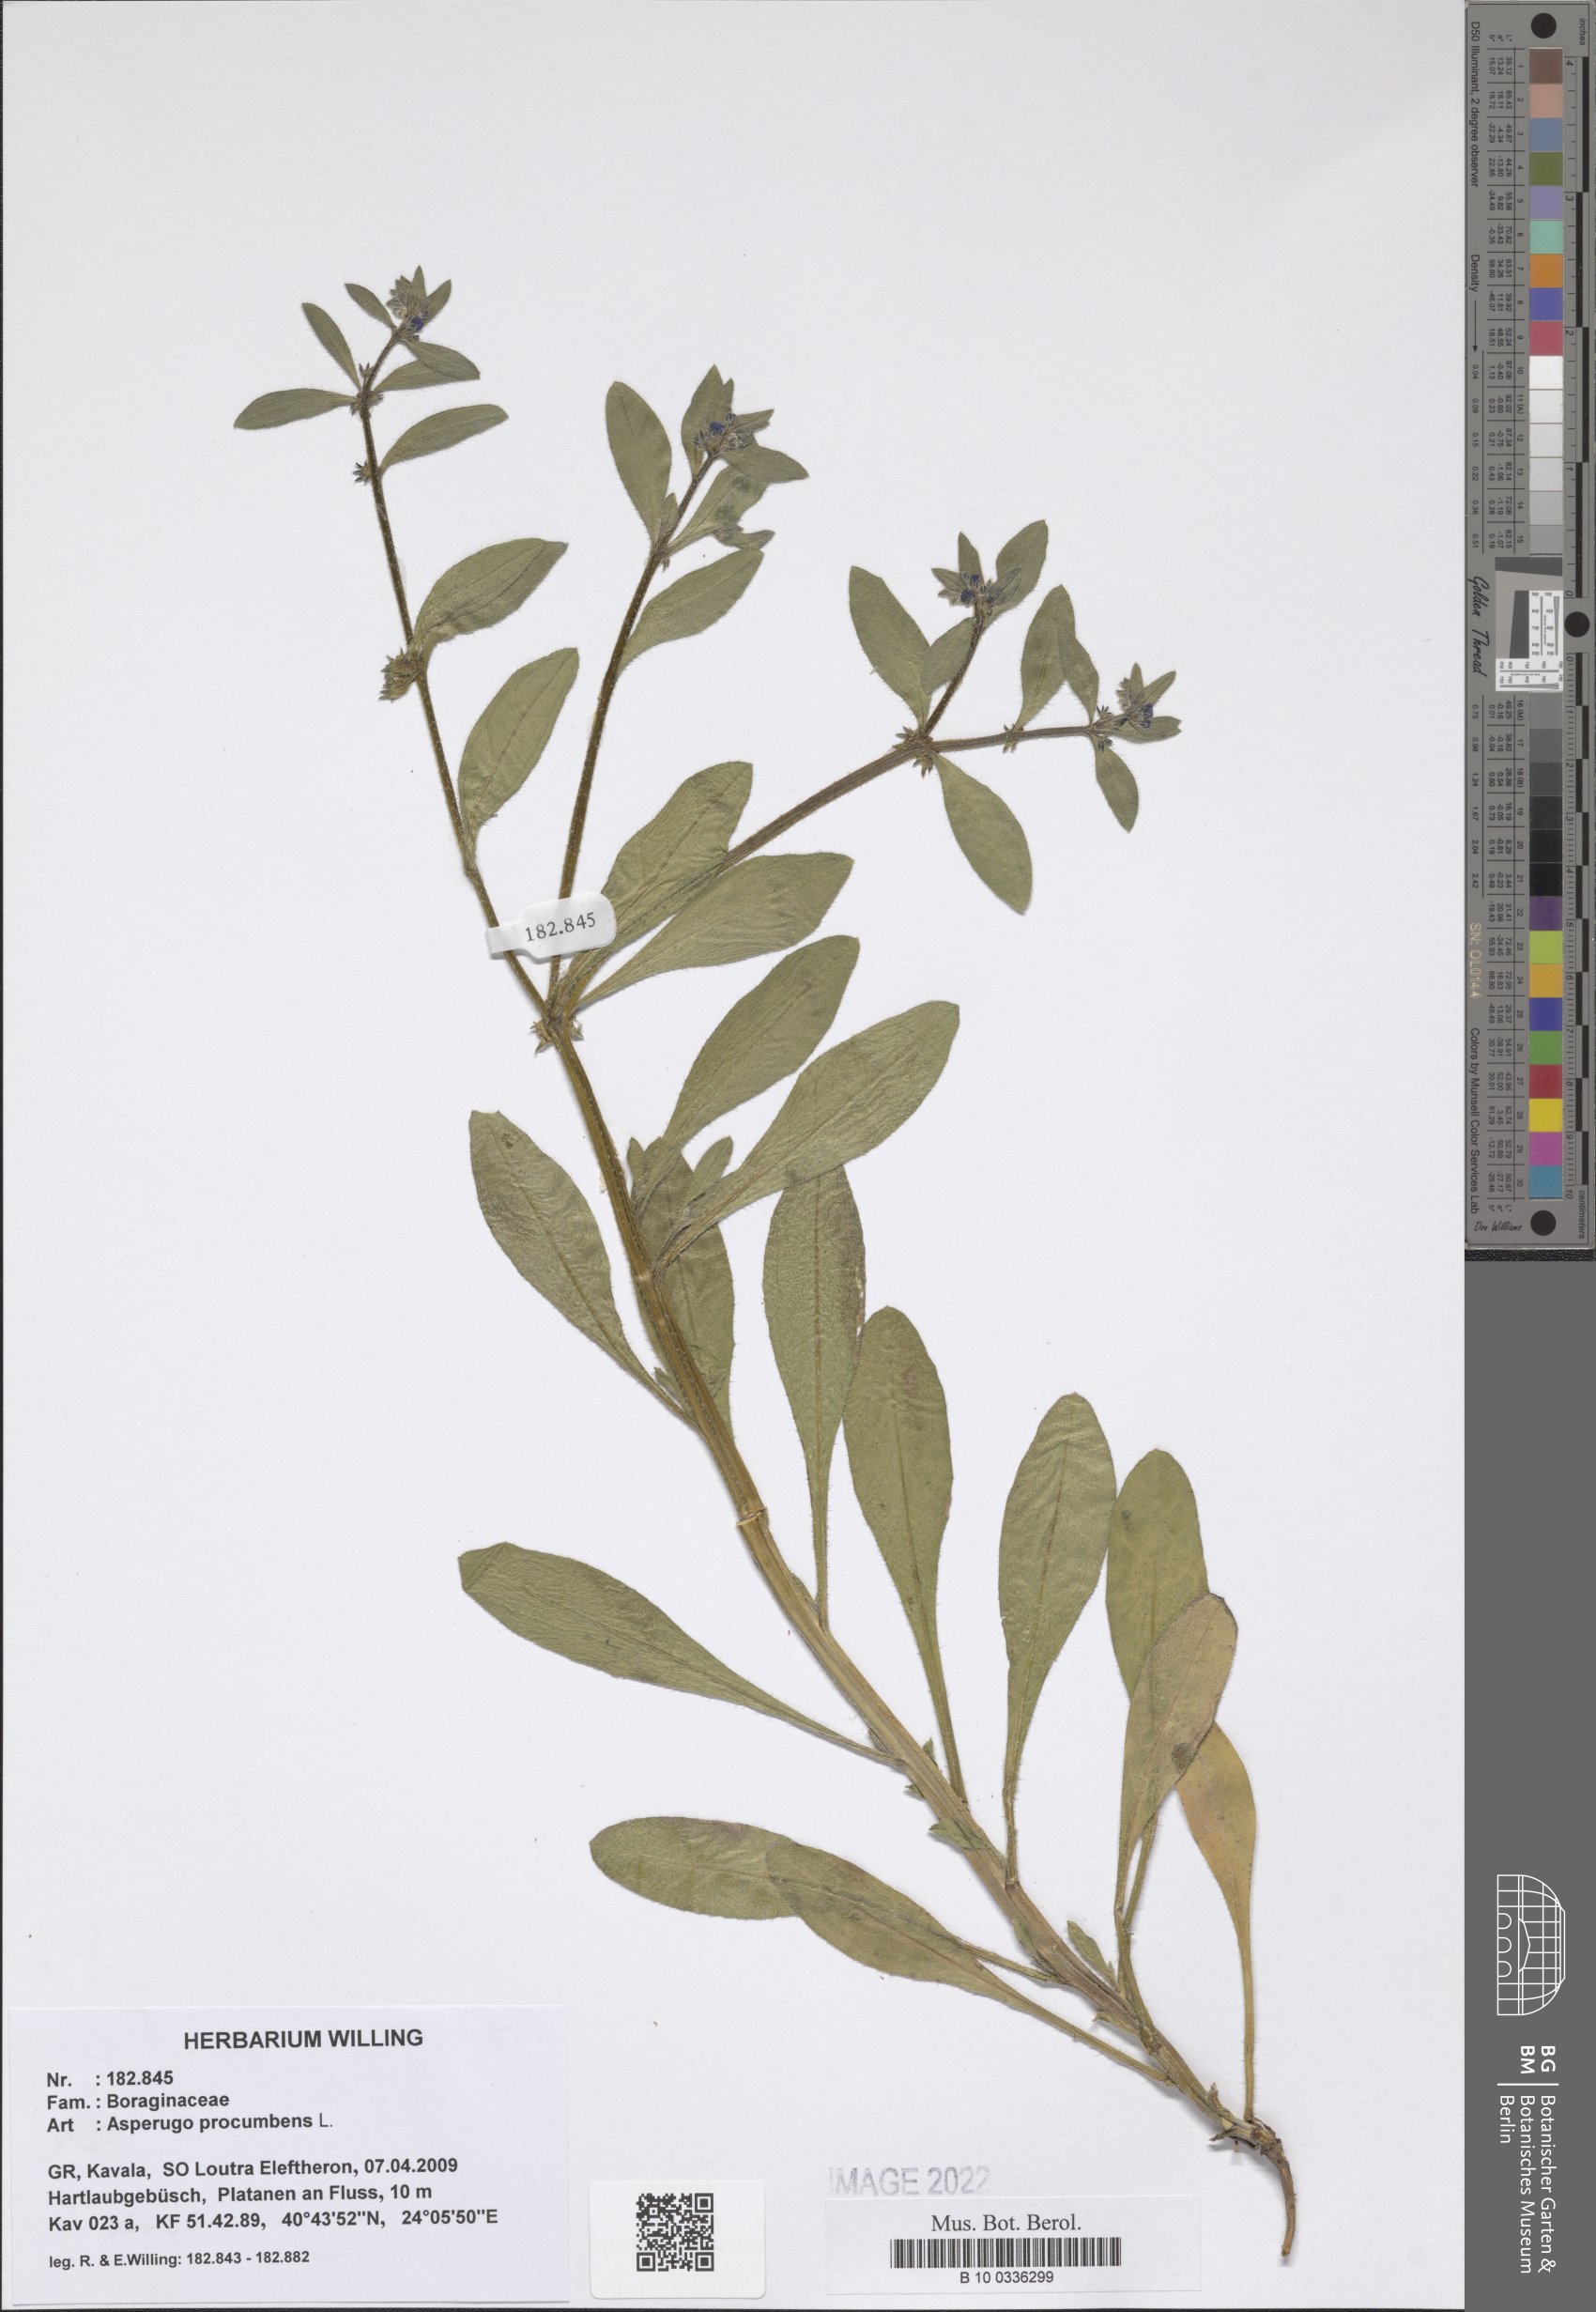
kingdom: Plantae
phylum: Tracheophyta
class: Magnoliopsida
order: Boraginales
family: Boraginaceae
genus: Asperugo
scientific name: Asperugo procumbens
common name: Madwort
